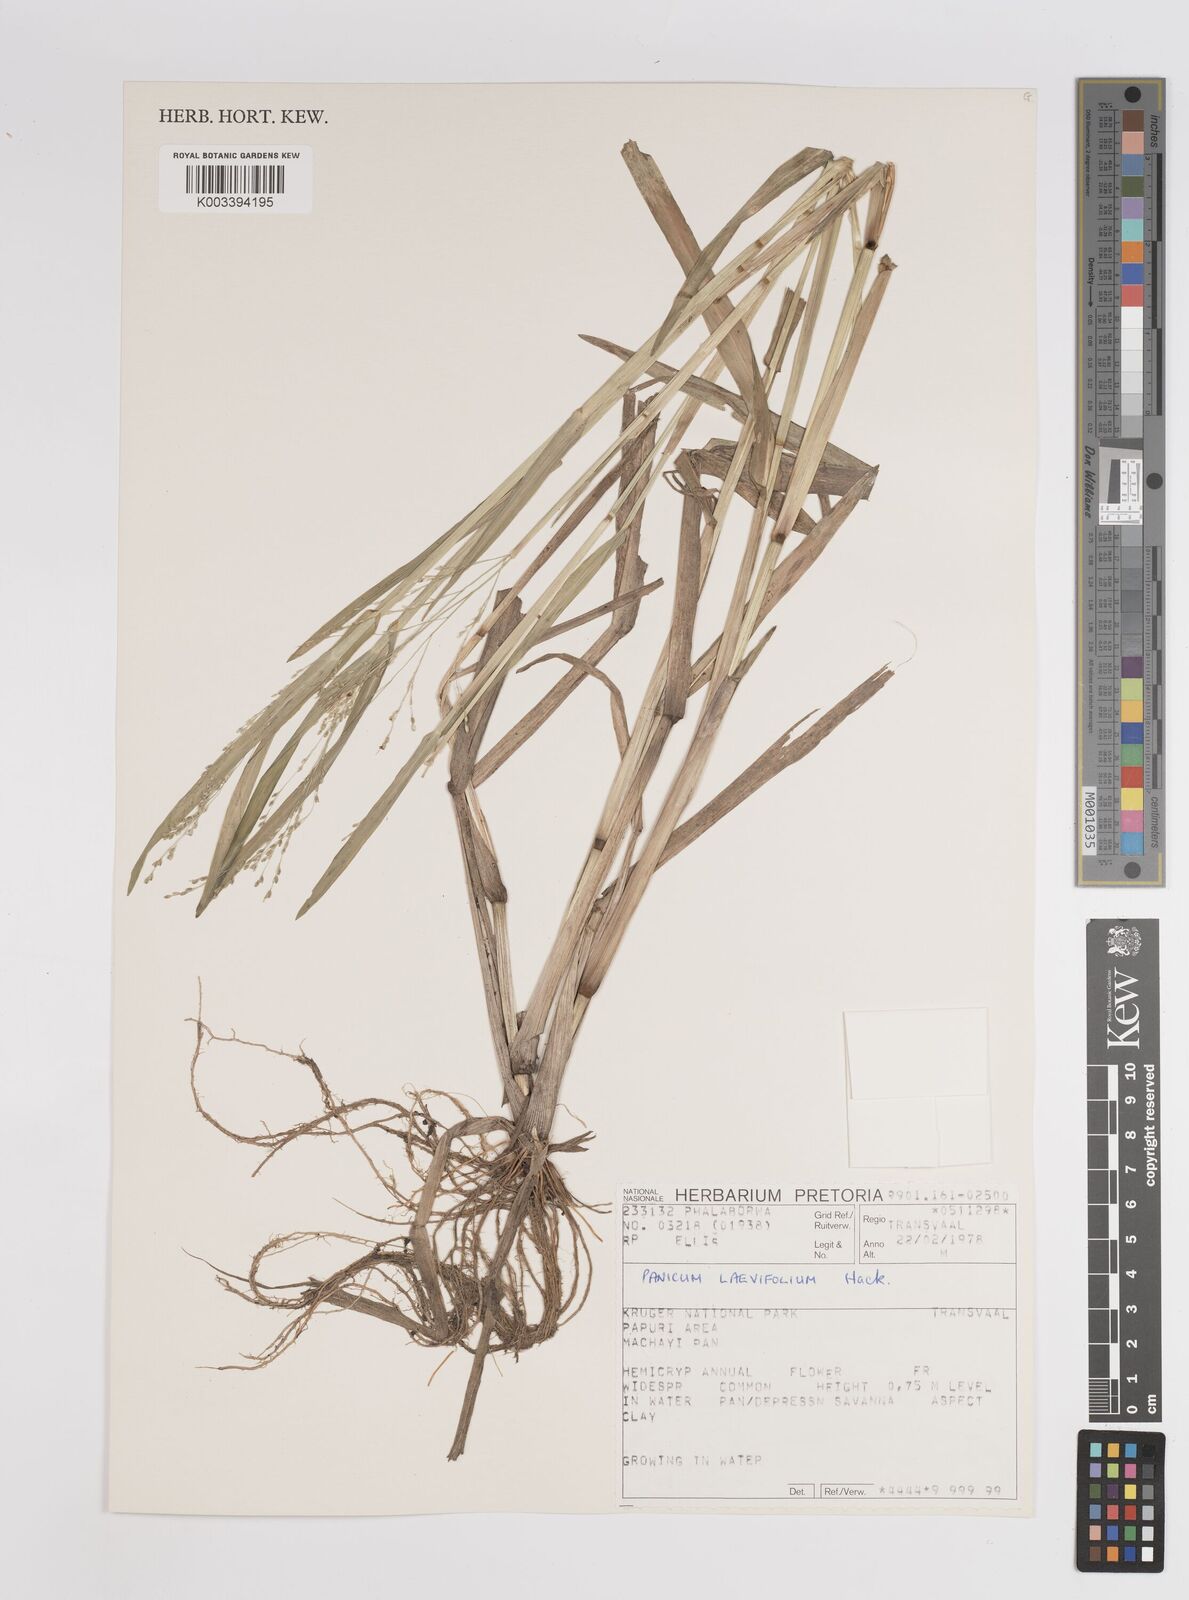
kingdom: Plantae
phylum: Tracheophyta
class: Liliopsida
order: Poales
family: Poaceae
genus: Panicum
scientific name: Panicum schinzii
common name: Sweet grass
